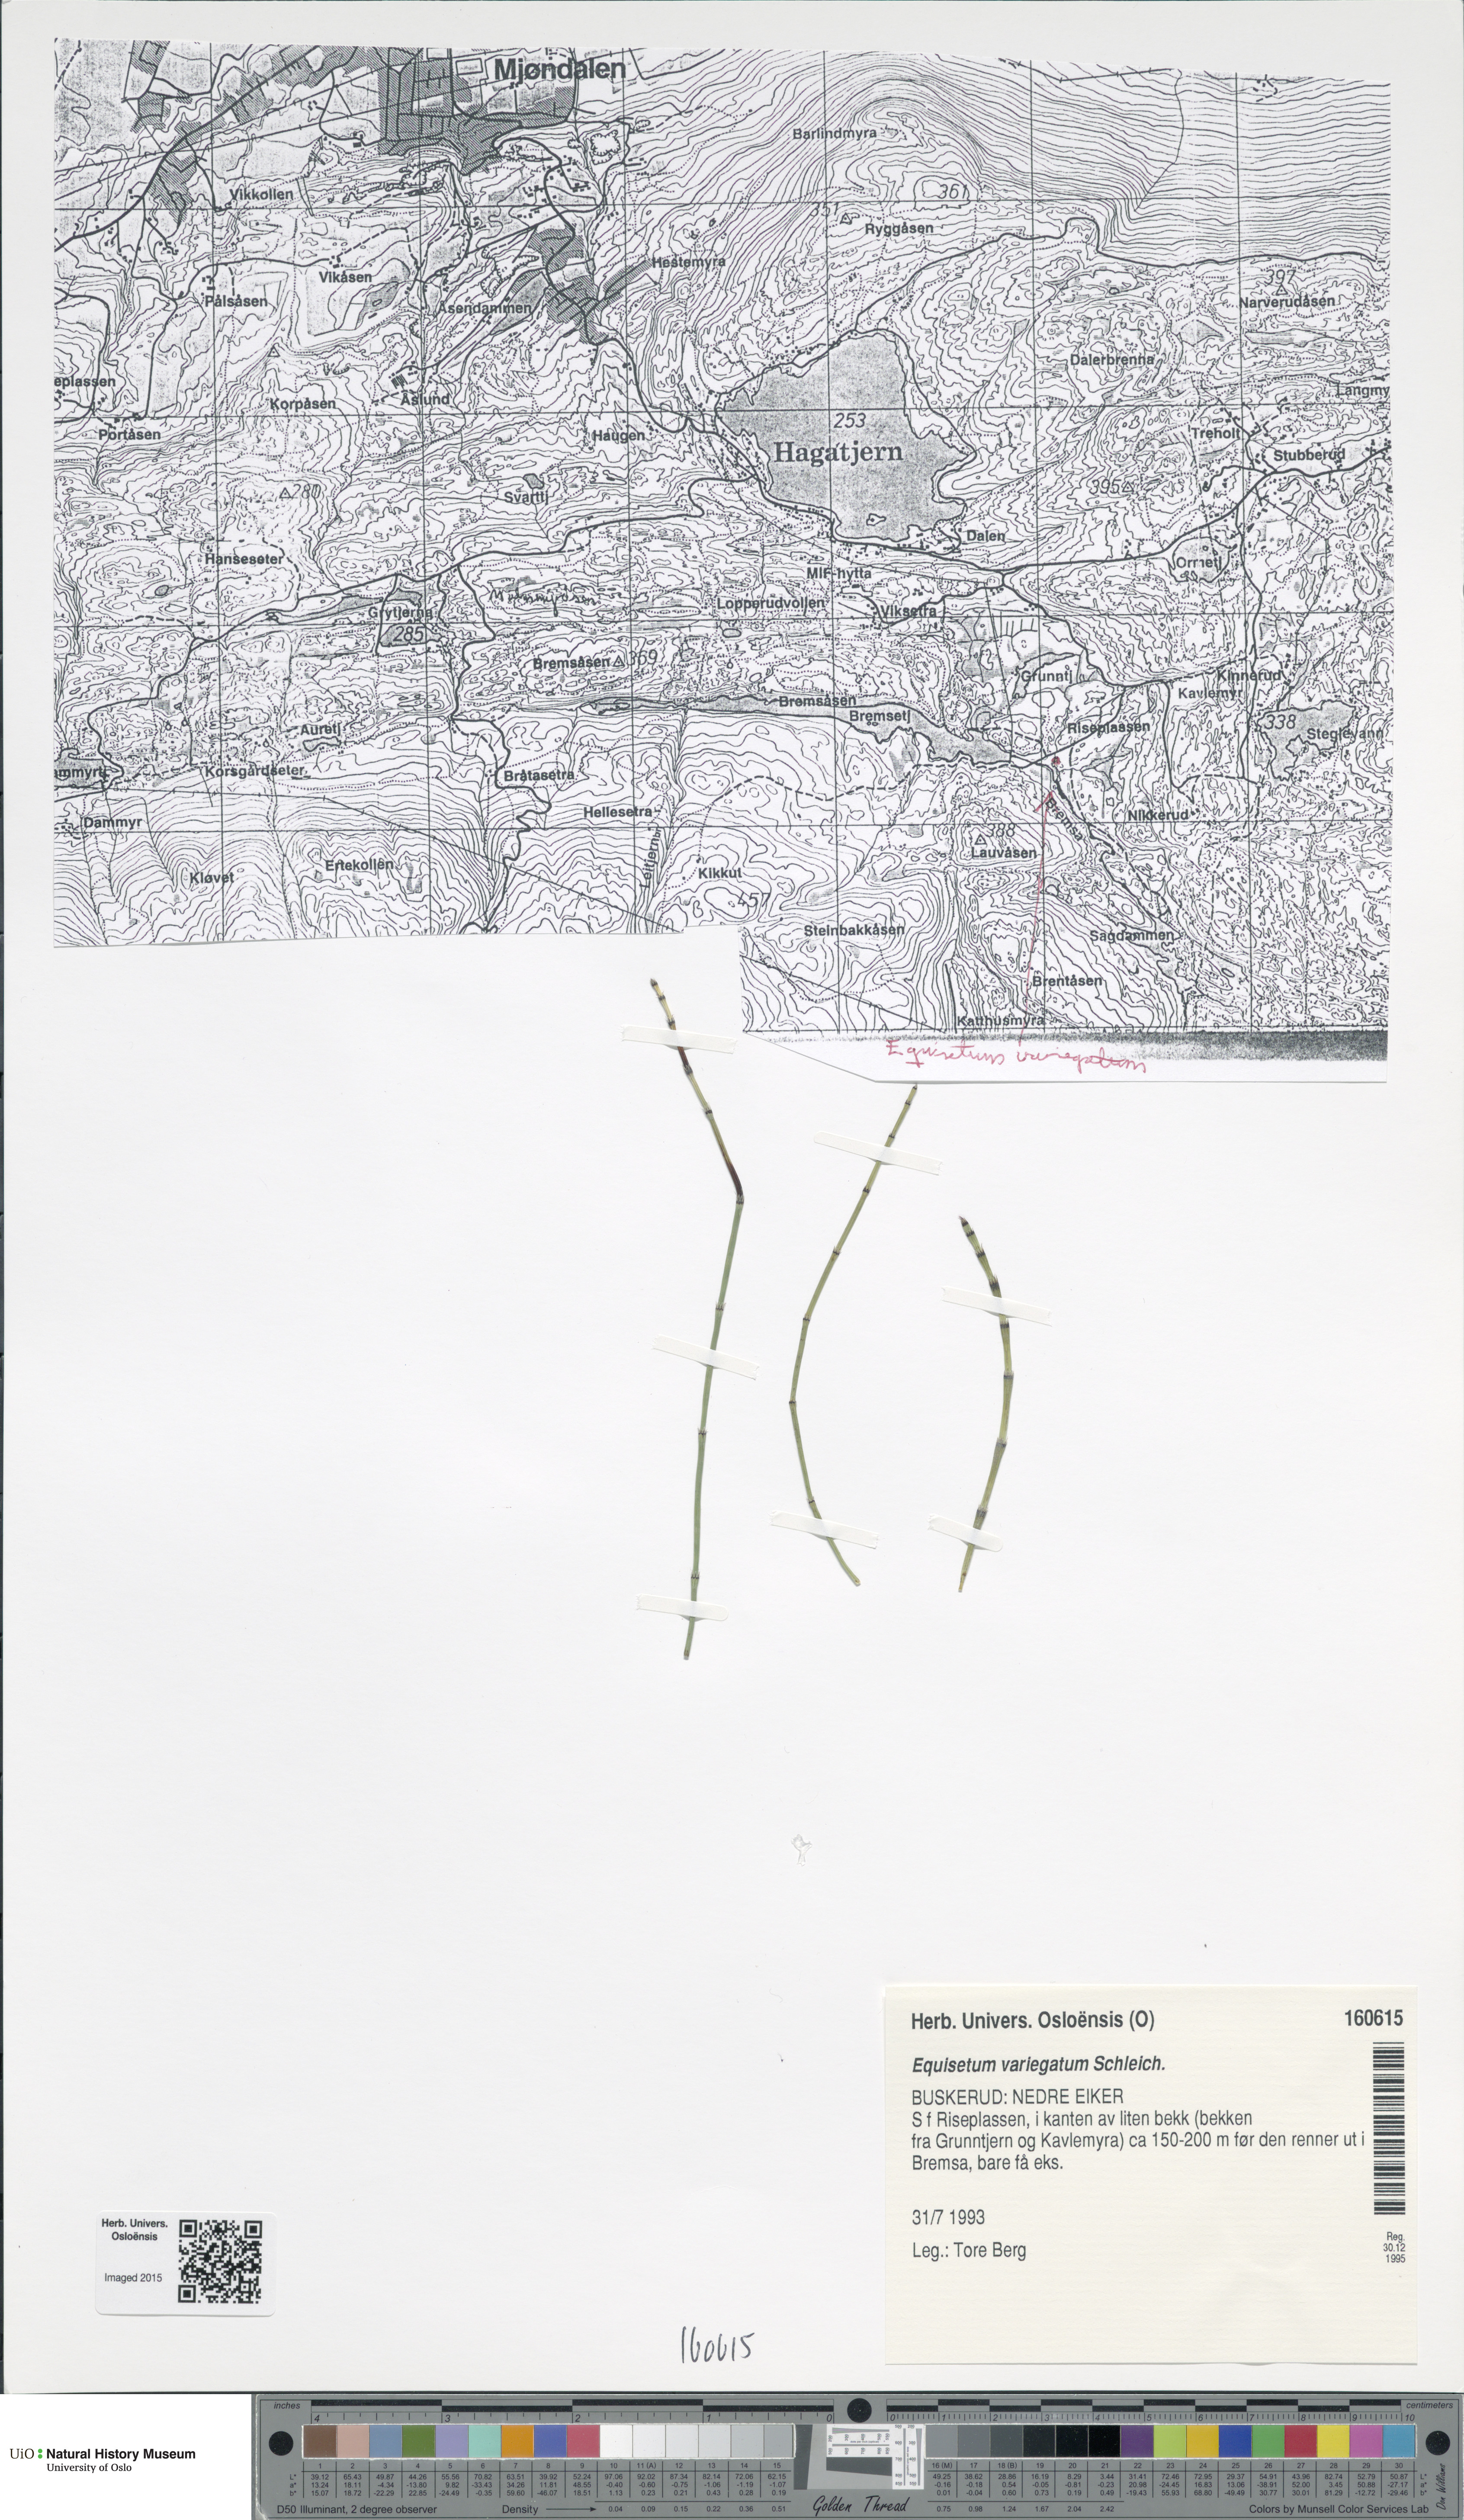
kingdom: Plantae
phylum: Tracheophyta
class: Polypodiopsida
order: Equisetales
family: Equisetaceae
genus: Equisetum
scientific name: Equisetum variegatum
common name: Variegated horsetail
